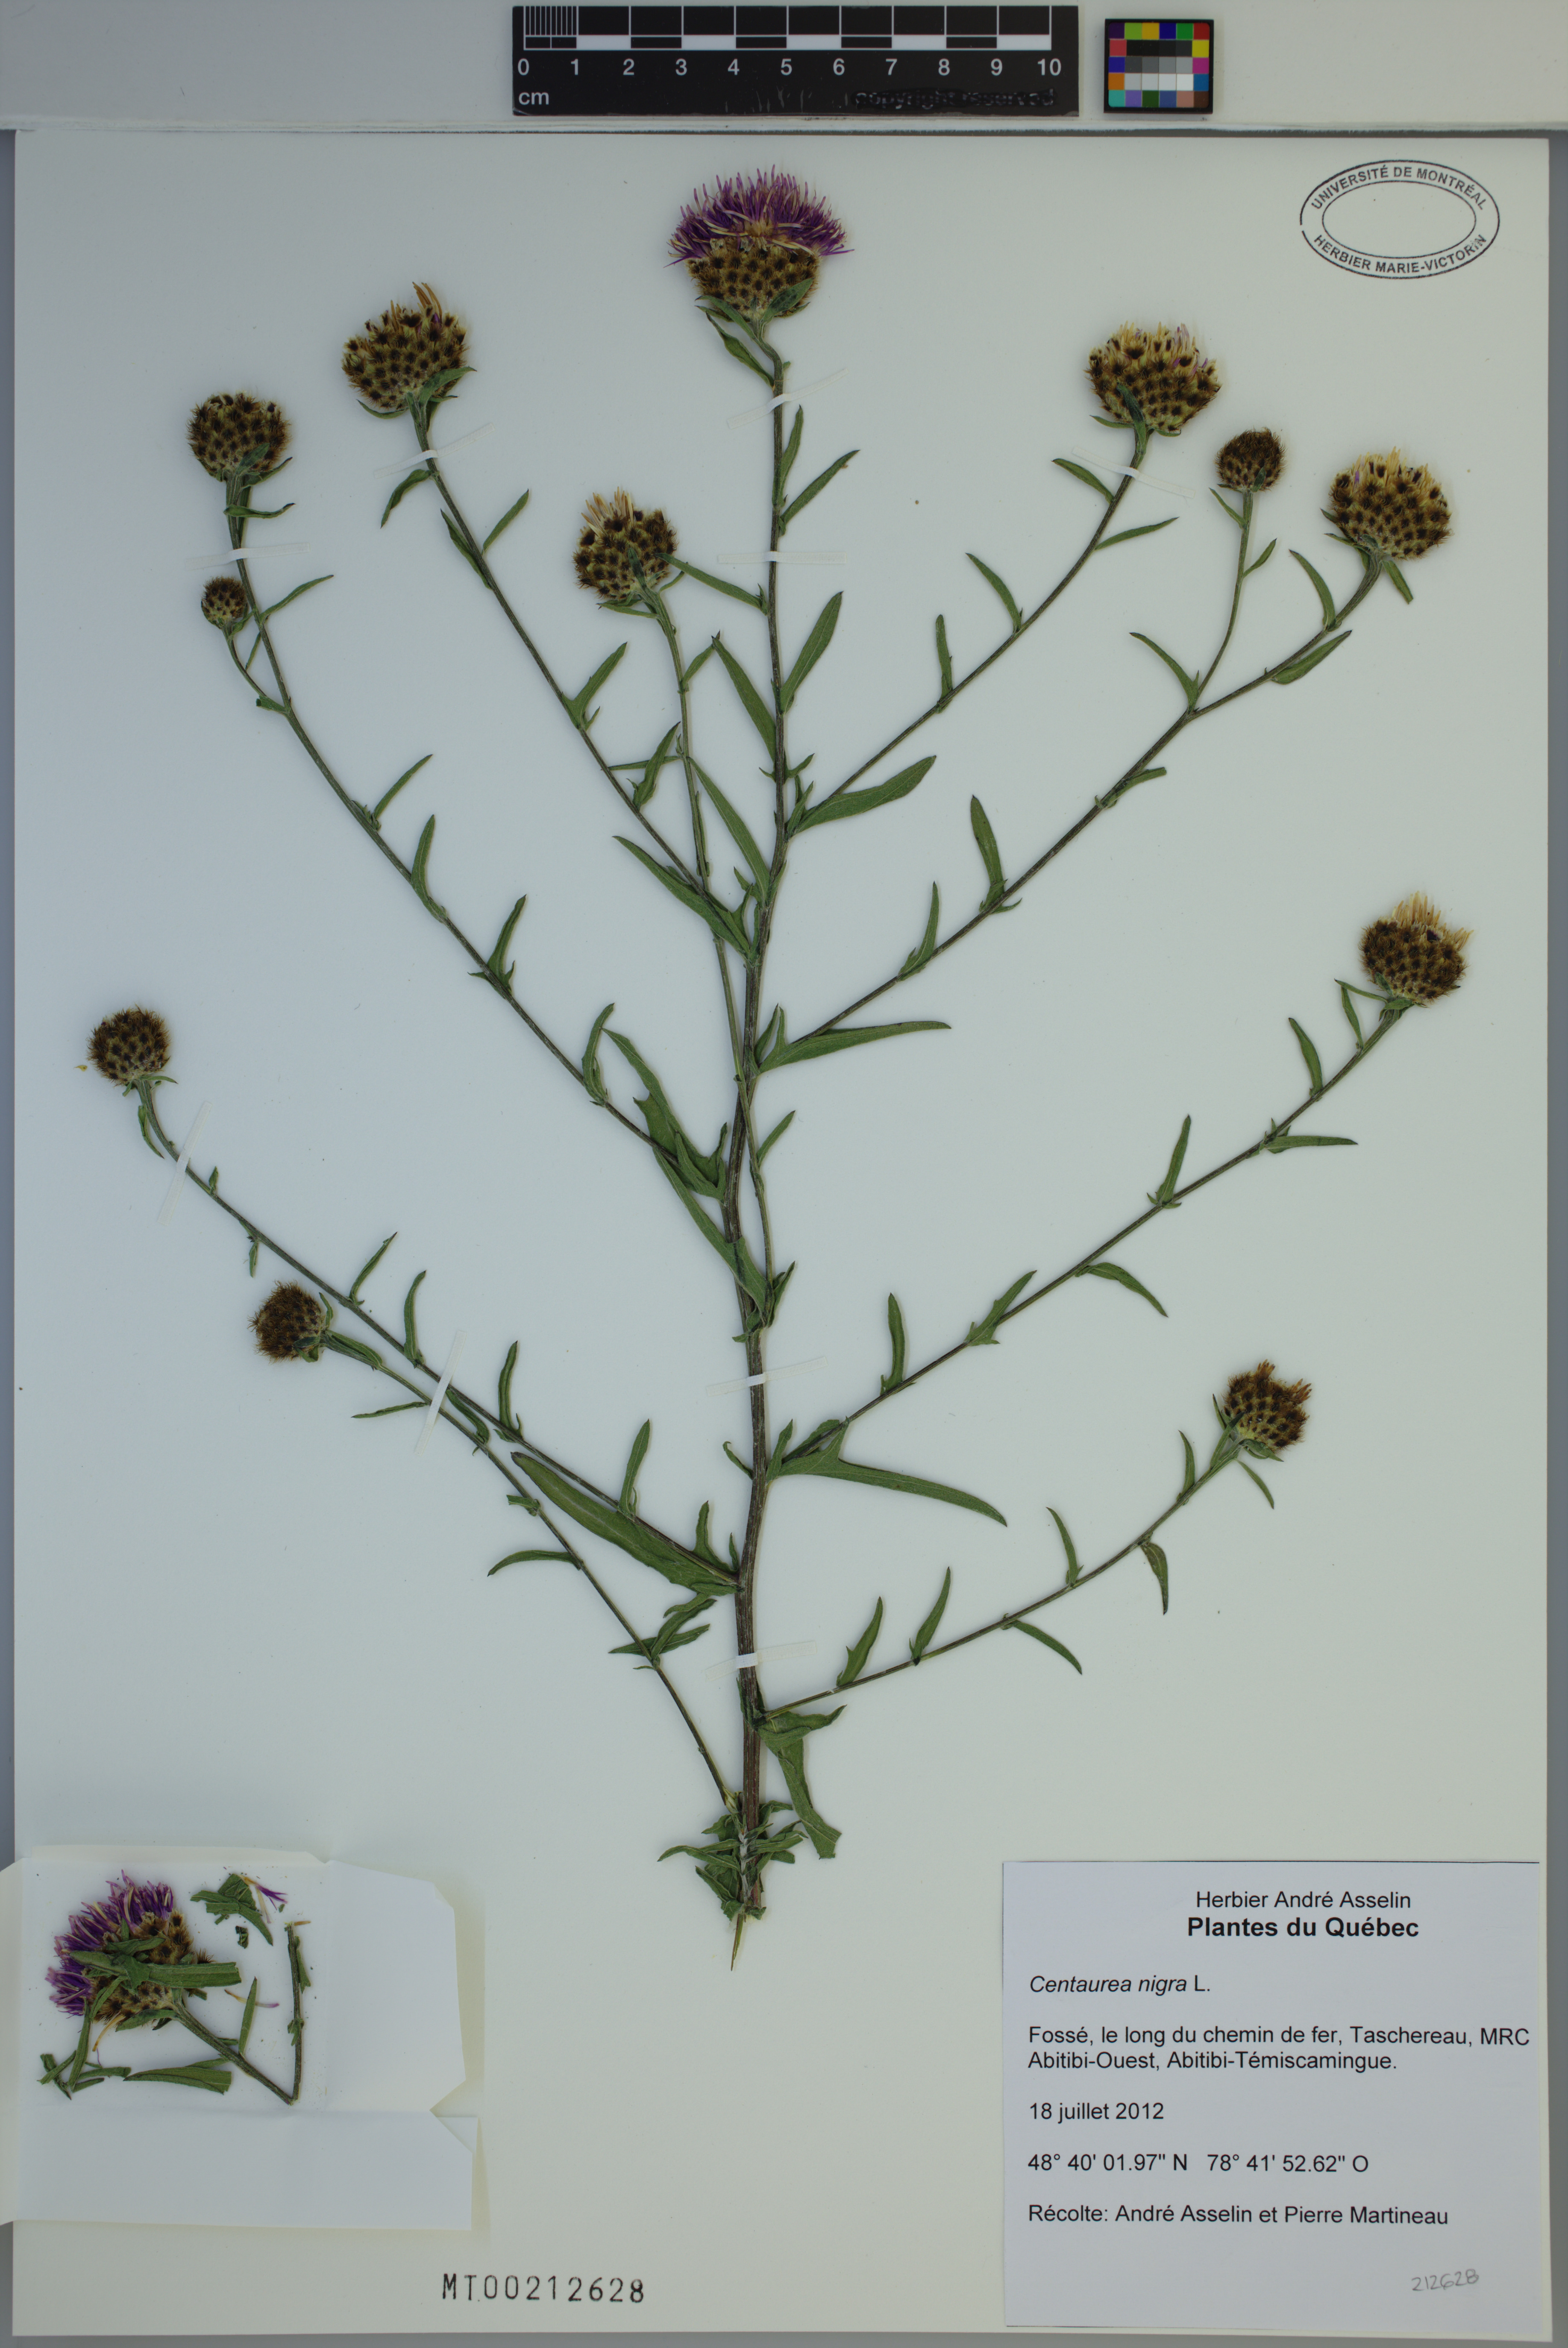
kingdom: Plantae
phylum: Tracheophyta
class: Magnoliopsida
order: Asterales
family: Asteraceae
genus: Centaurea
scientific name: Centaurea nigra
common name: Lesser knapweed
